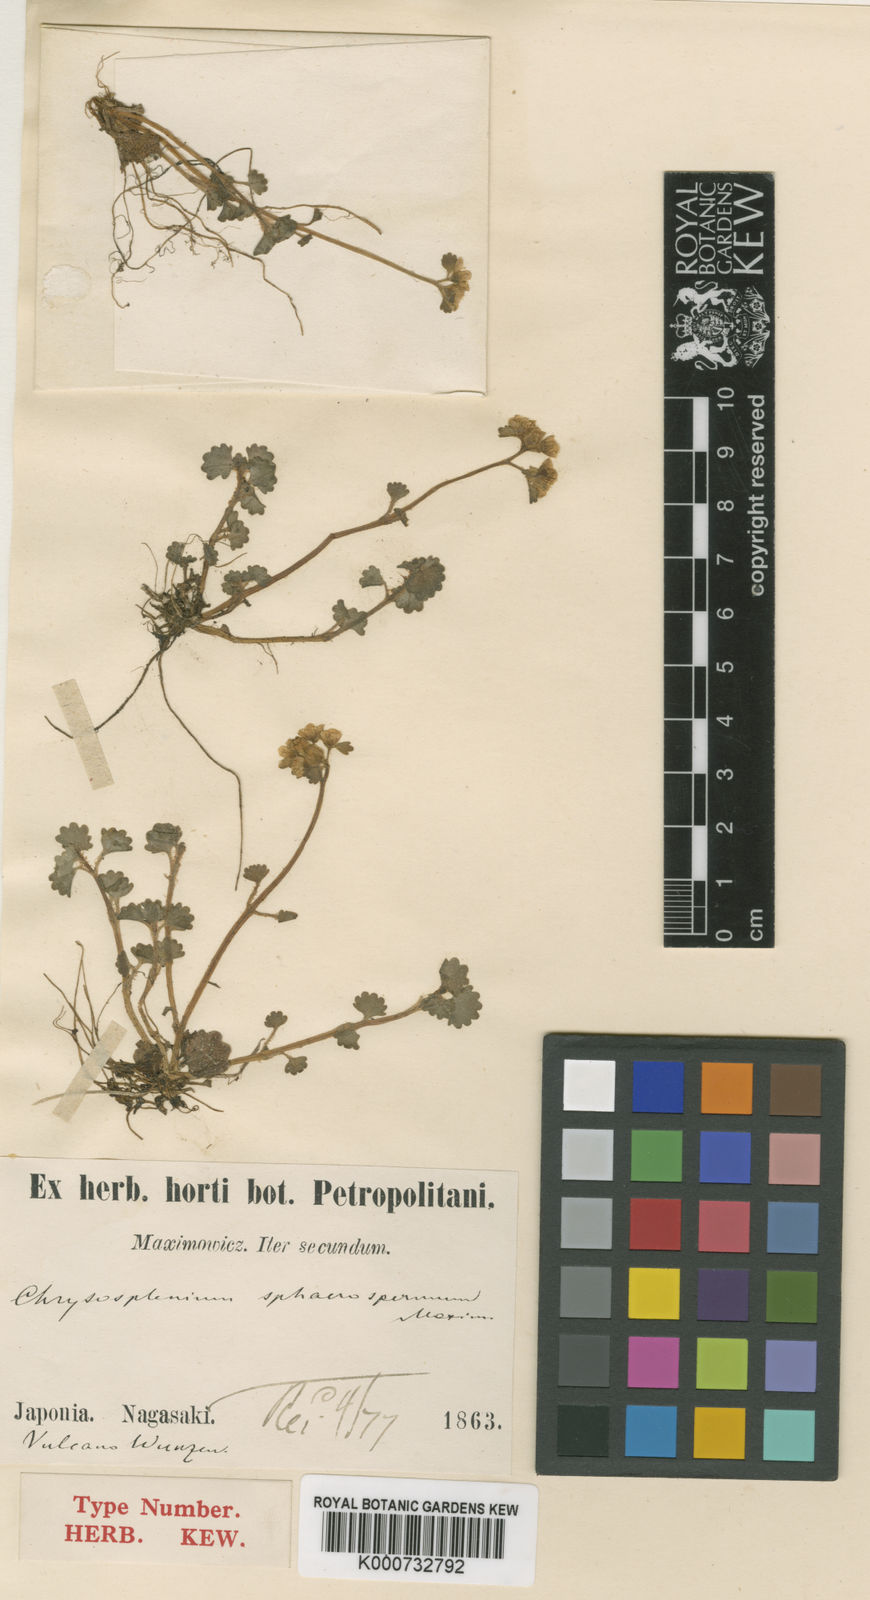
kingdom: Plantae
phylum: Tracheophyta
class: Magnoliopsida
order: Saxifragales
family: Saxifragaceae
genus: Chrysosplenium
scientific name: Chrysosplenium pilosum
